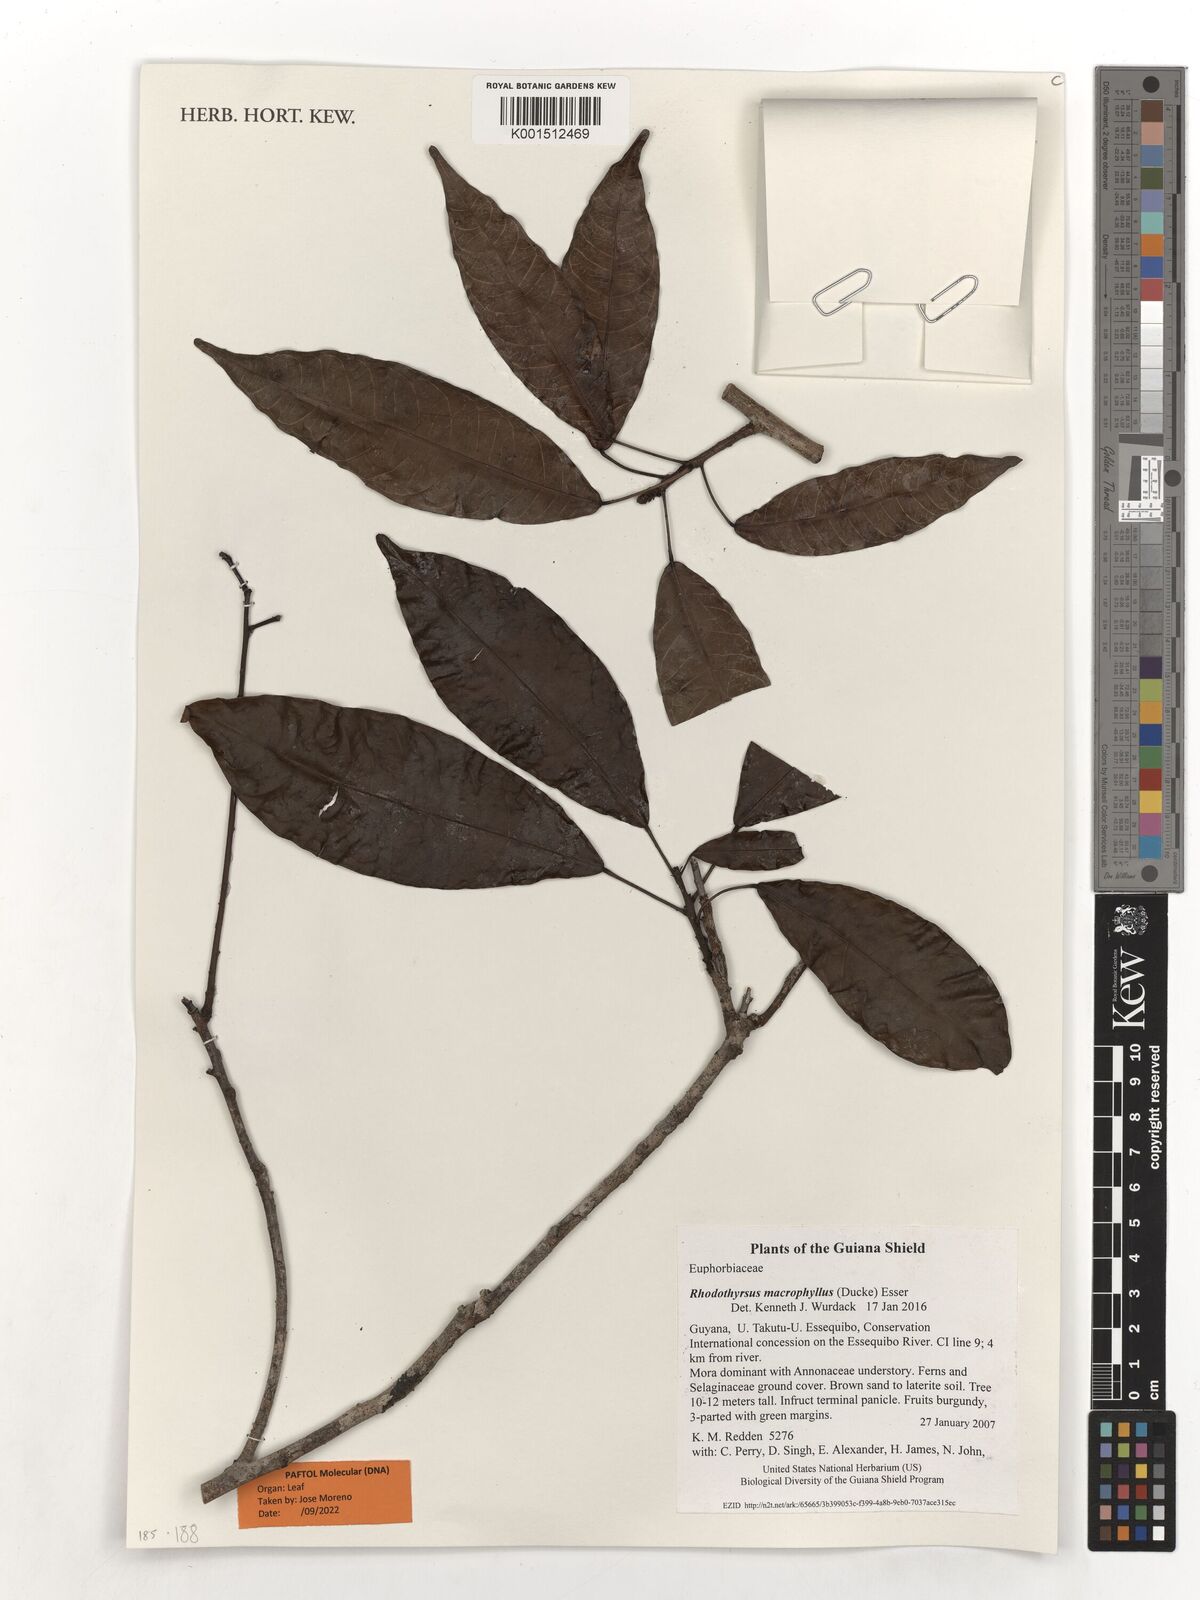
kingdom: Plantae
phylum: Tracheophyta
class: Magnoliopsida
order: Malpighiales
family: Euphorbiaceae
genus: Rhodothyrsus
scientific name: Rhodothyrsus macrophyllus
